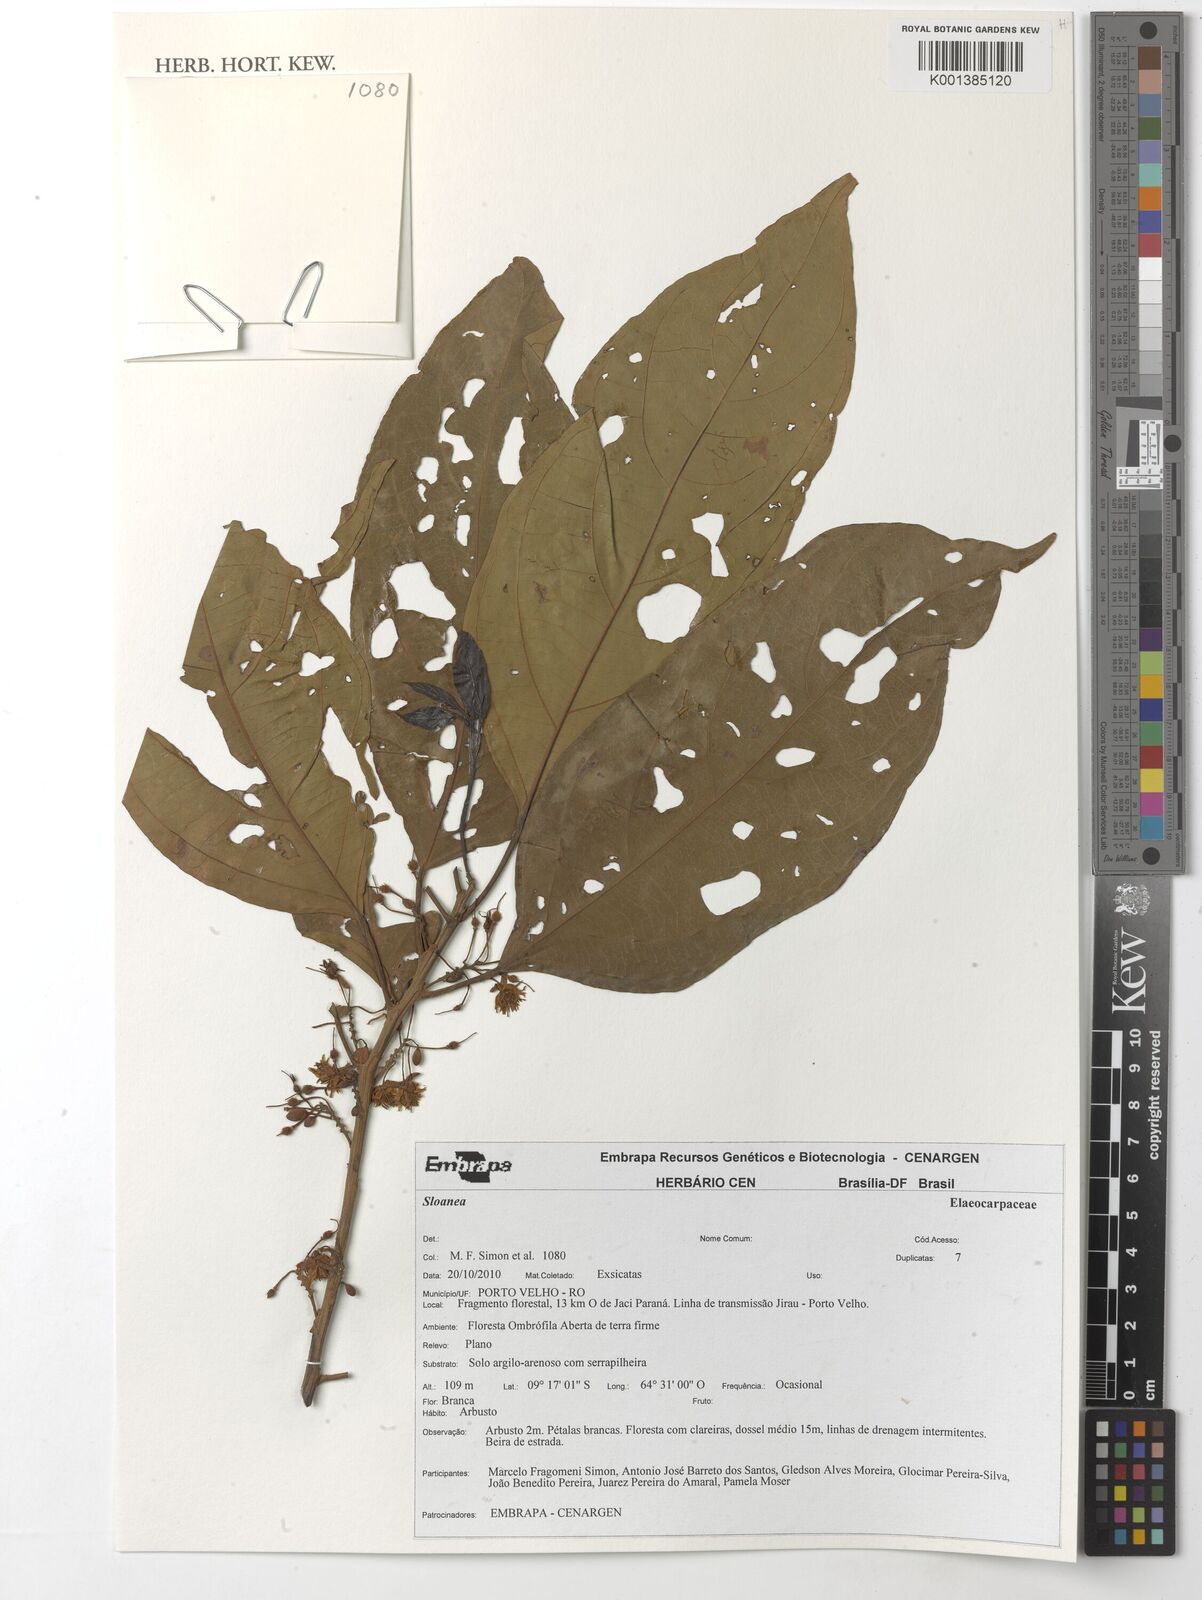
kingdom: Plantae
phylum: Tracheophyta
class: Magnoliopsida
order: Oxalidales
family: Elaeocarpaceae
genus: Sloanea
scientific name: Sloanea
